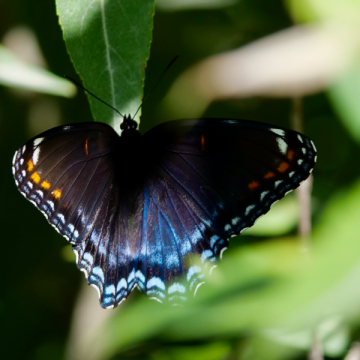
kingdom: Animalia
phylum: Arthropoda
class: Insecta
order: Lepidoptera
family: Nymphalidae
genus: Limenitis
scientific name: Limenitis arthemis
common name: Red-spotted Admiral
